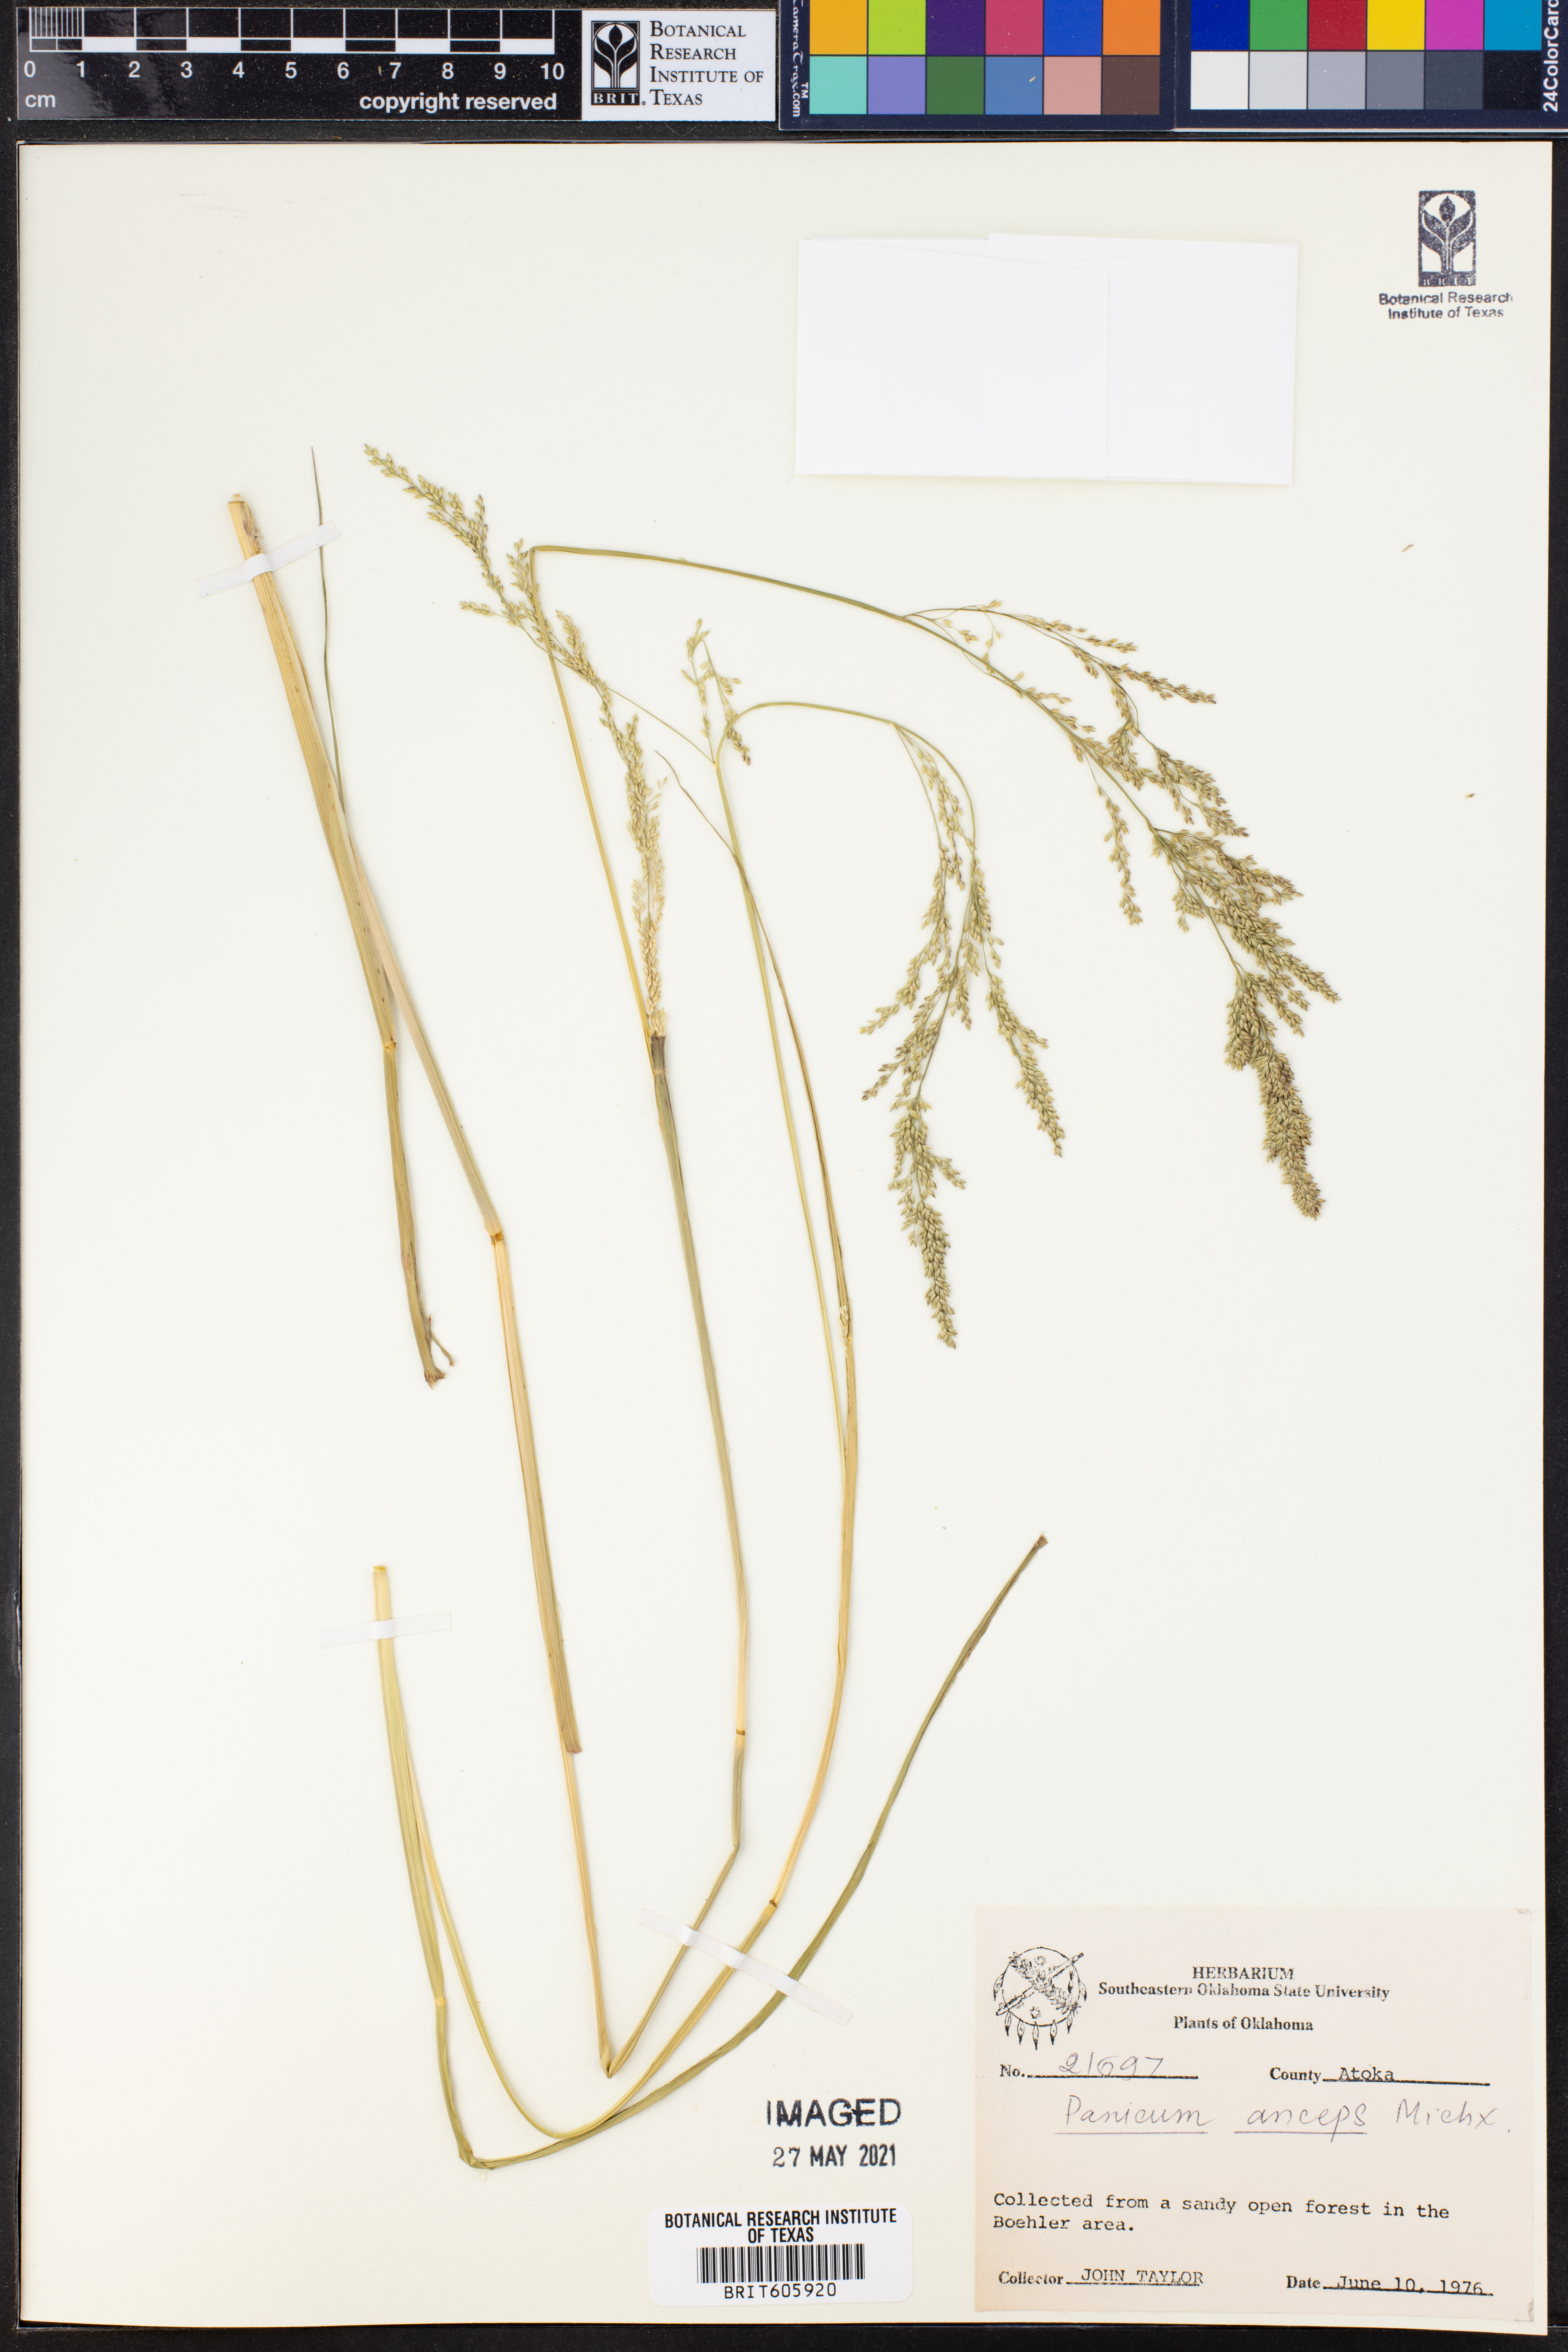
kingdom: Plantae
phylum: Tracheophyta
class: Liliopsida
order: Poales
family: Poaceae
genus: Coleataenia
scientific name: Coleataenia anceps
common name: Beaked panic grass
